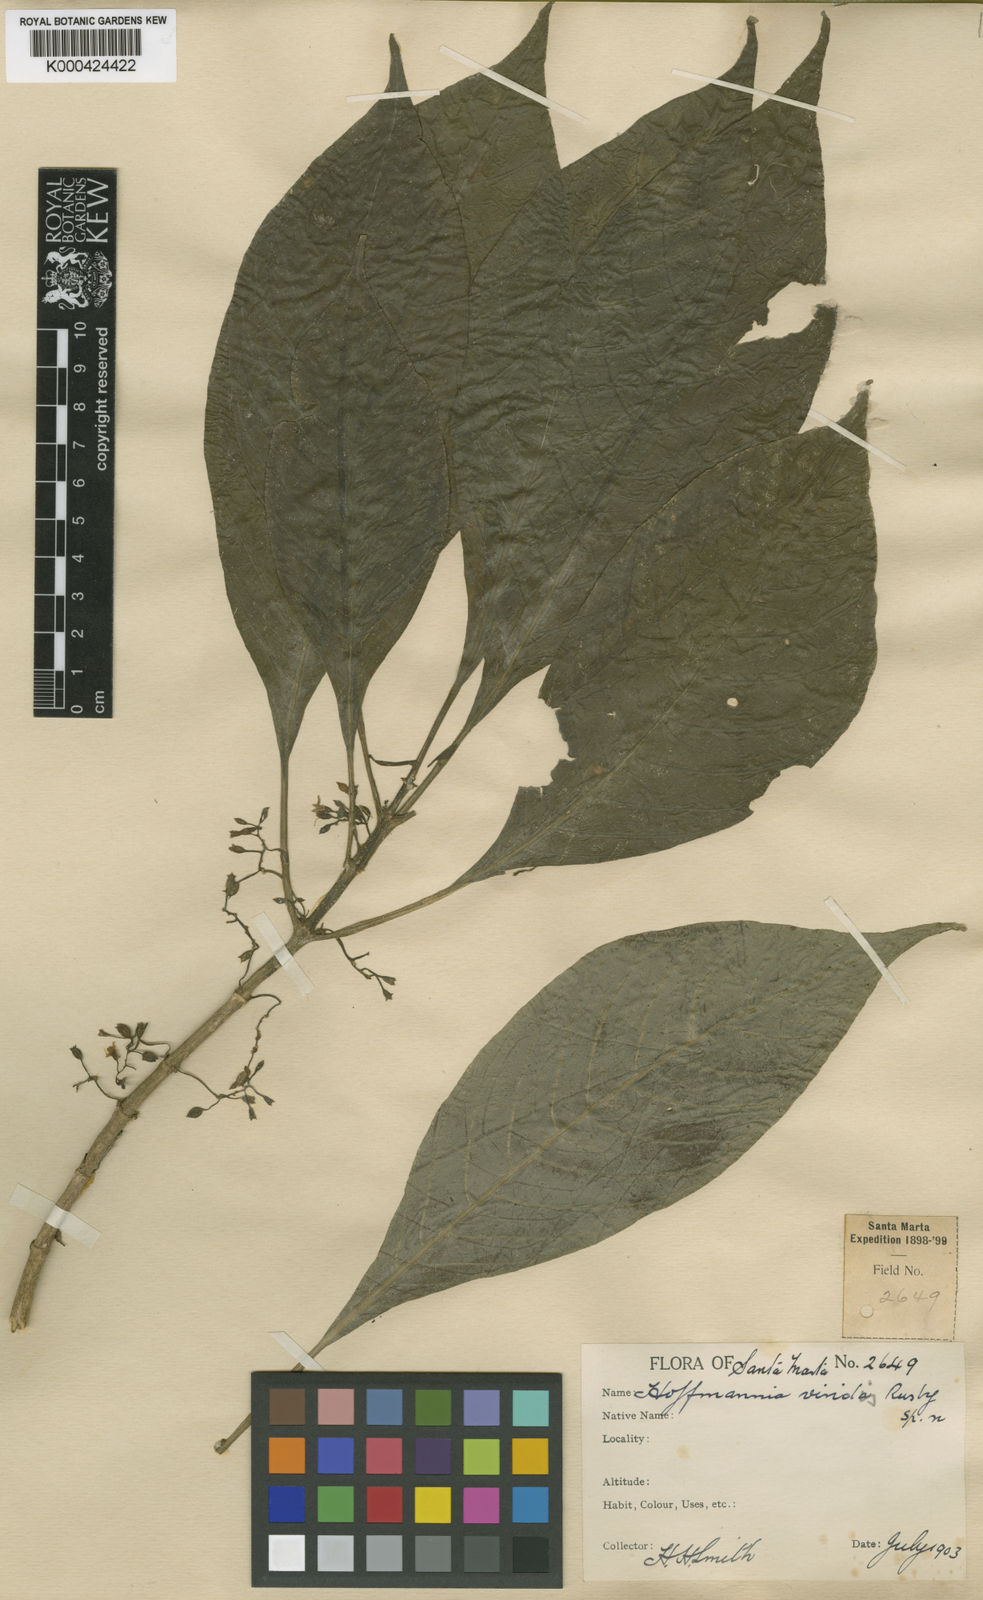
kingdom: Plantae
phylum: Tracheophyta
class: Magnoliopsida
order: Gentianales
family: Rubiaceae
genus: Hoffmannia
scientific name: Hoffmannia viridis
